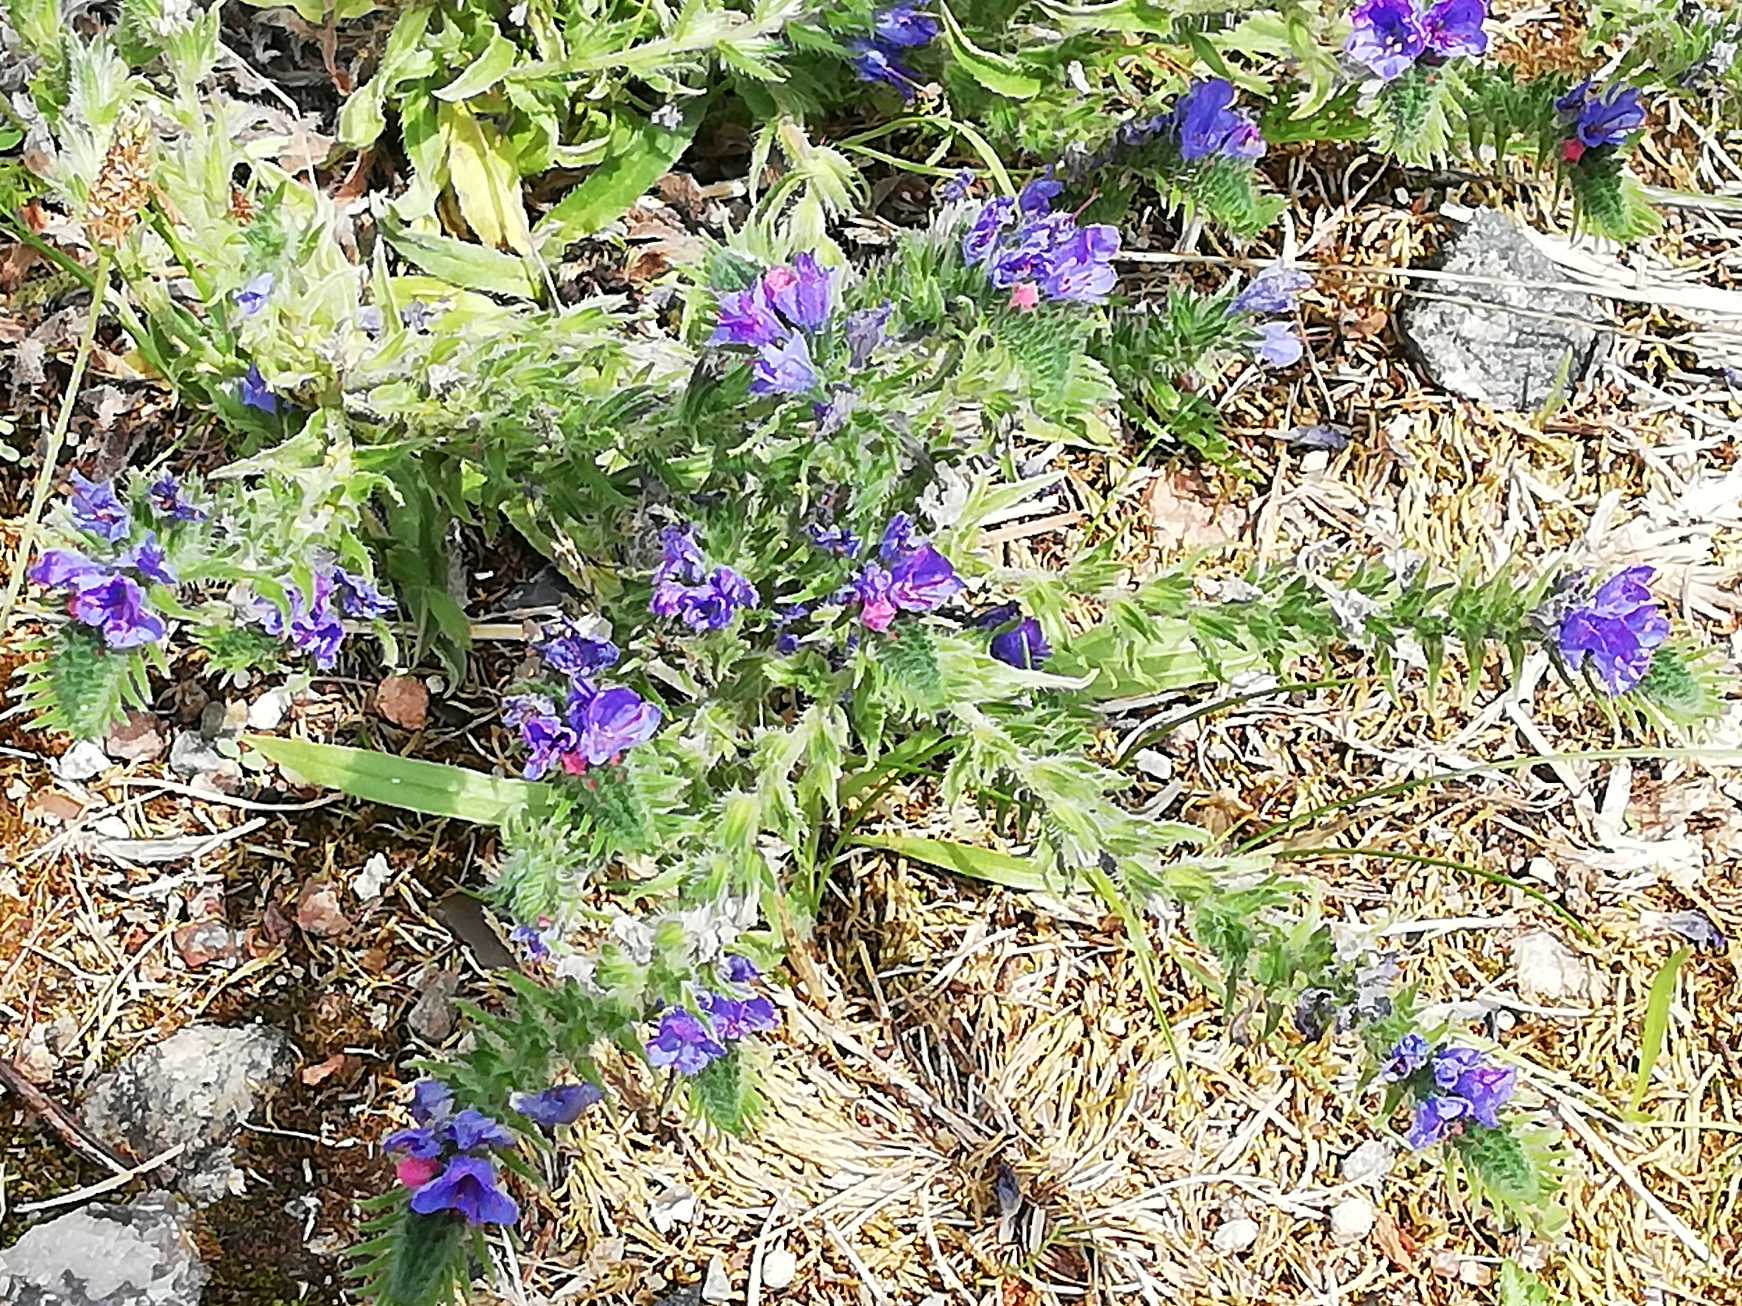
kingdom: Plantae
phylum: Tracheophyta
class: Magnoliopsida
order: Boraginales
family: Boraginaceae
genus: Echium
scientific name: Echium
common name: Slangehovedslægten
